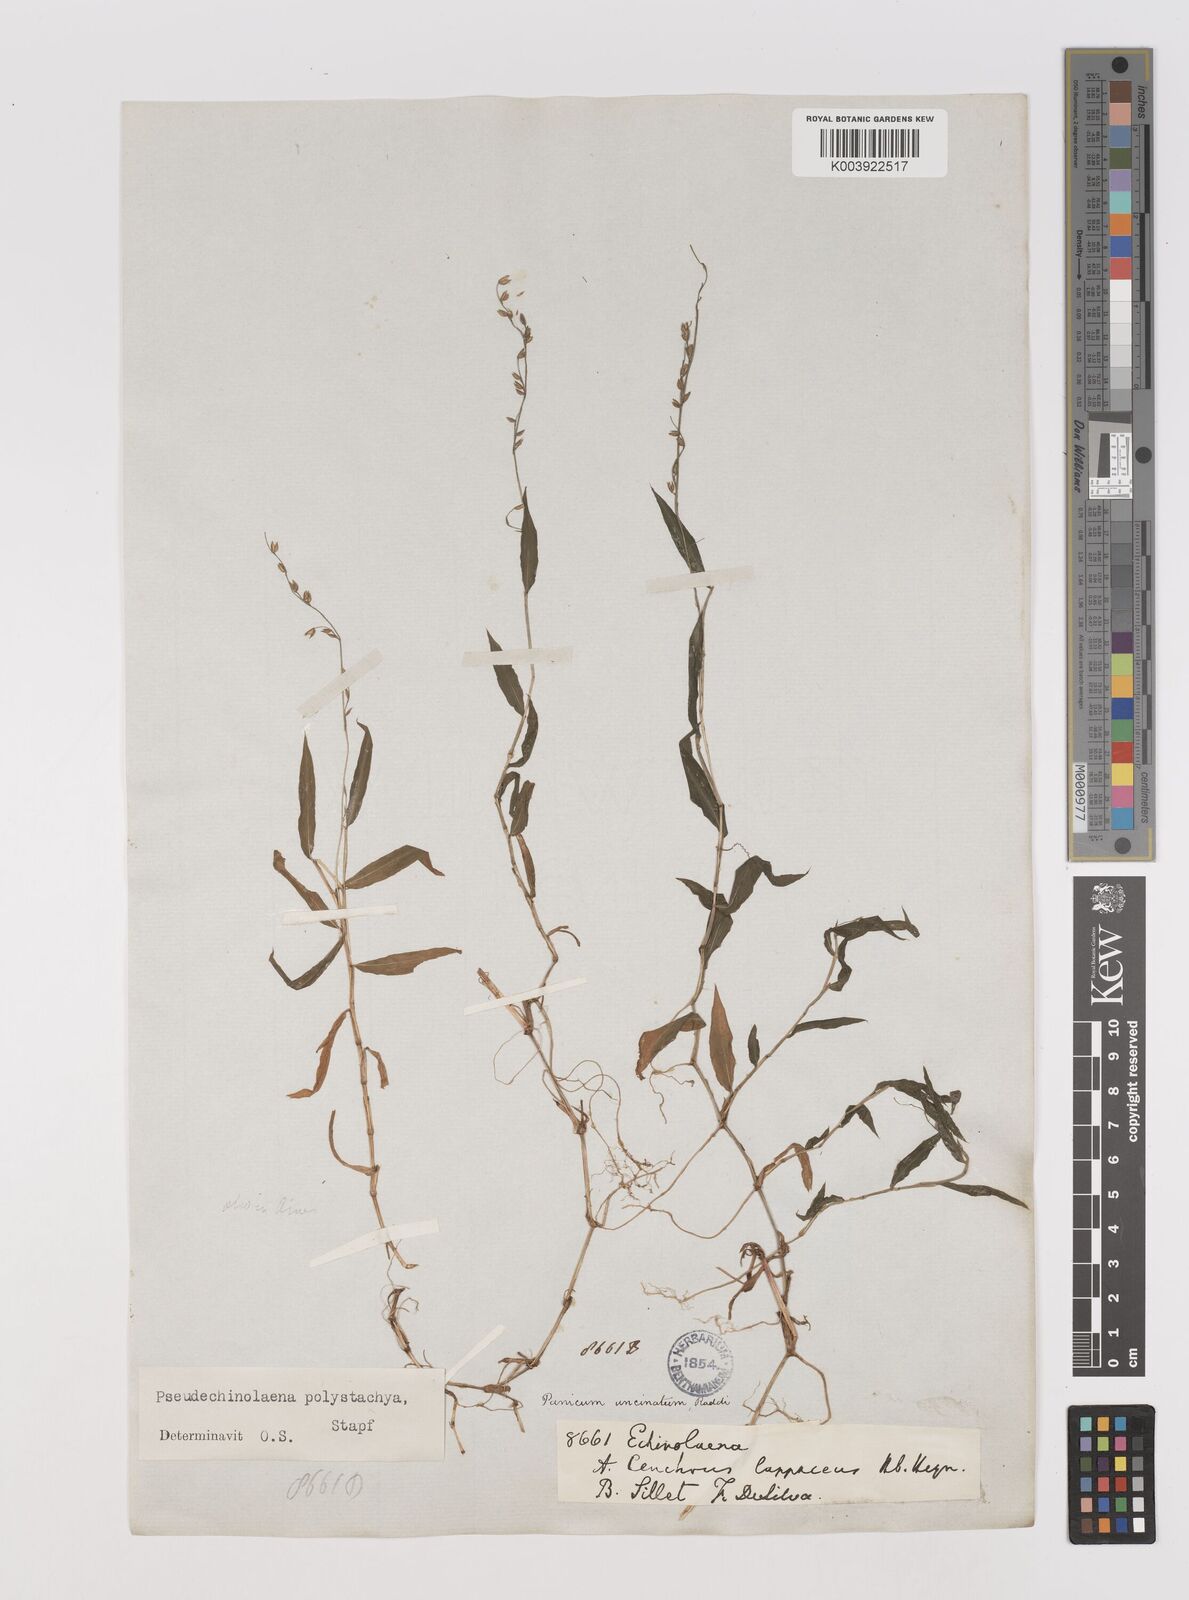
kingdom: Plantae
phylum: Tracheophyta
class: Liliopsida
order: Poales
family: Poaceae
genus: Pseudechinolaena
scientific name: Pseudechinolaena polystachya
